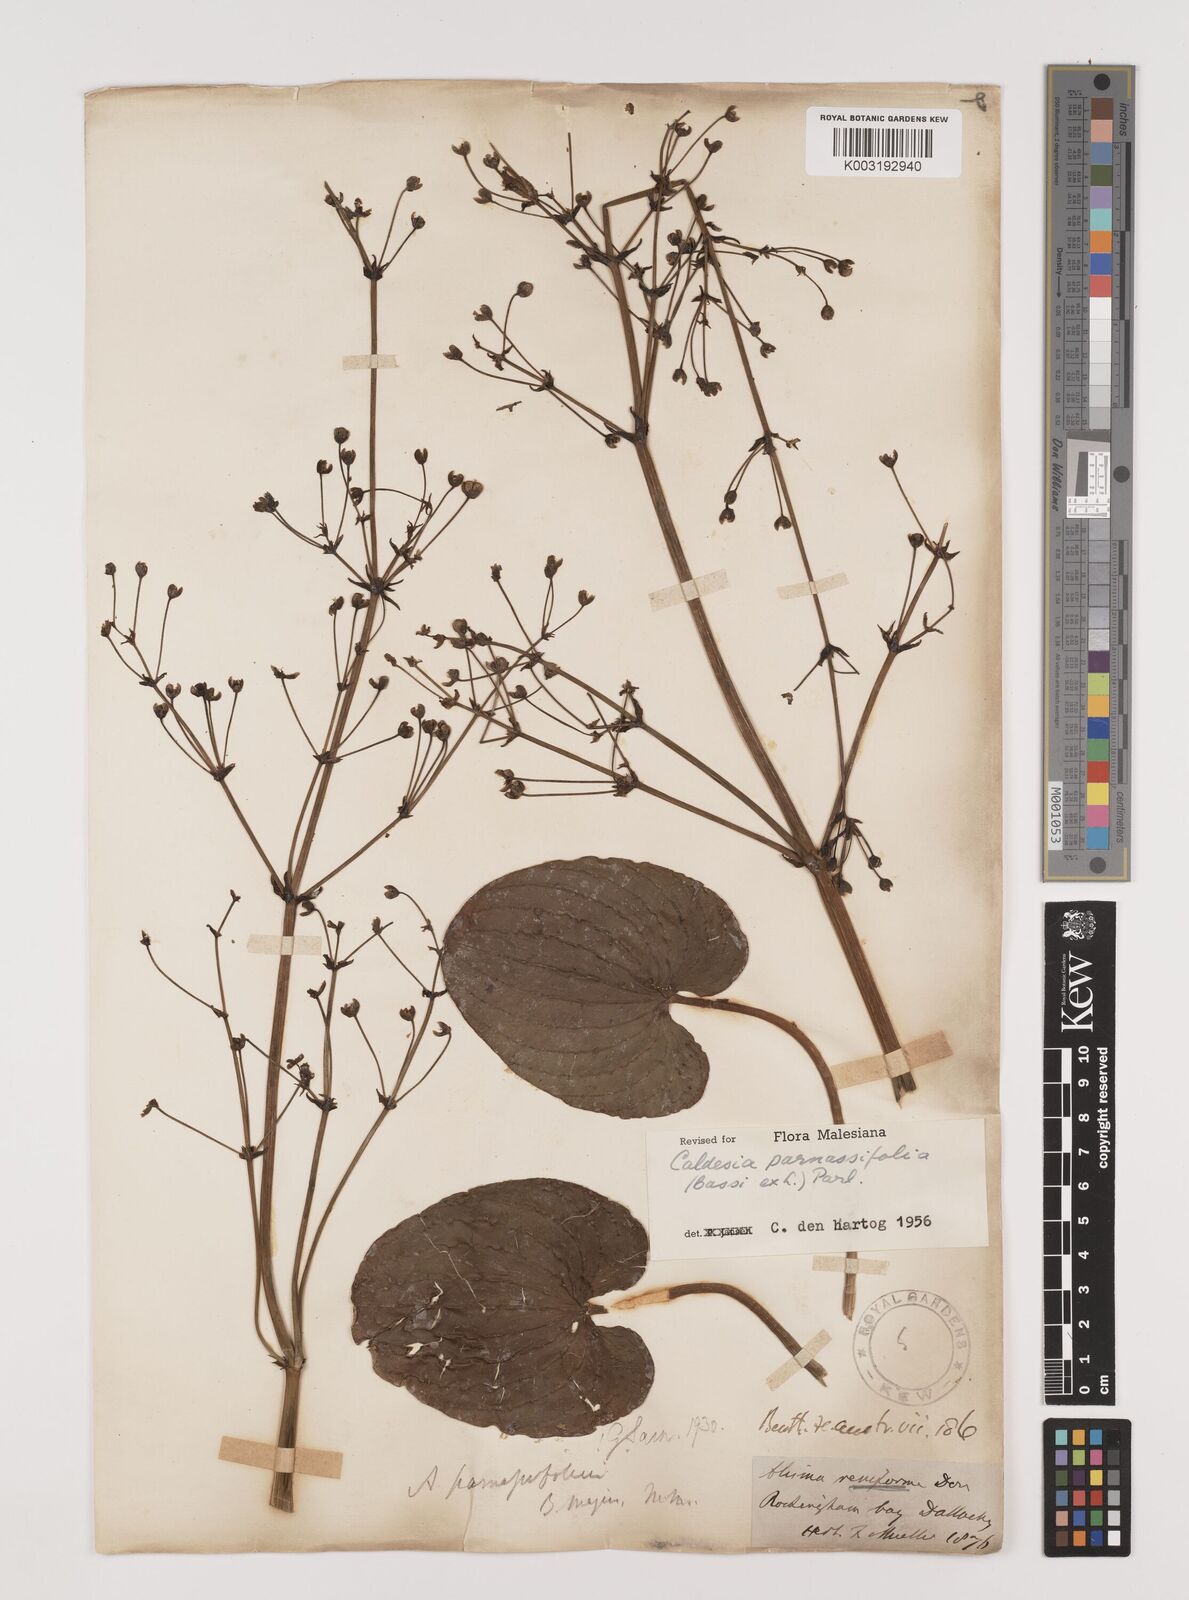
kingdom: Plantae
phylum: Tracheophyta
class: Liliopsida
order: Alismatales
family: Alismataceae
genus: Caldesia
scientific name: Caldesia parnassifolia
